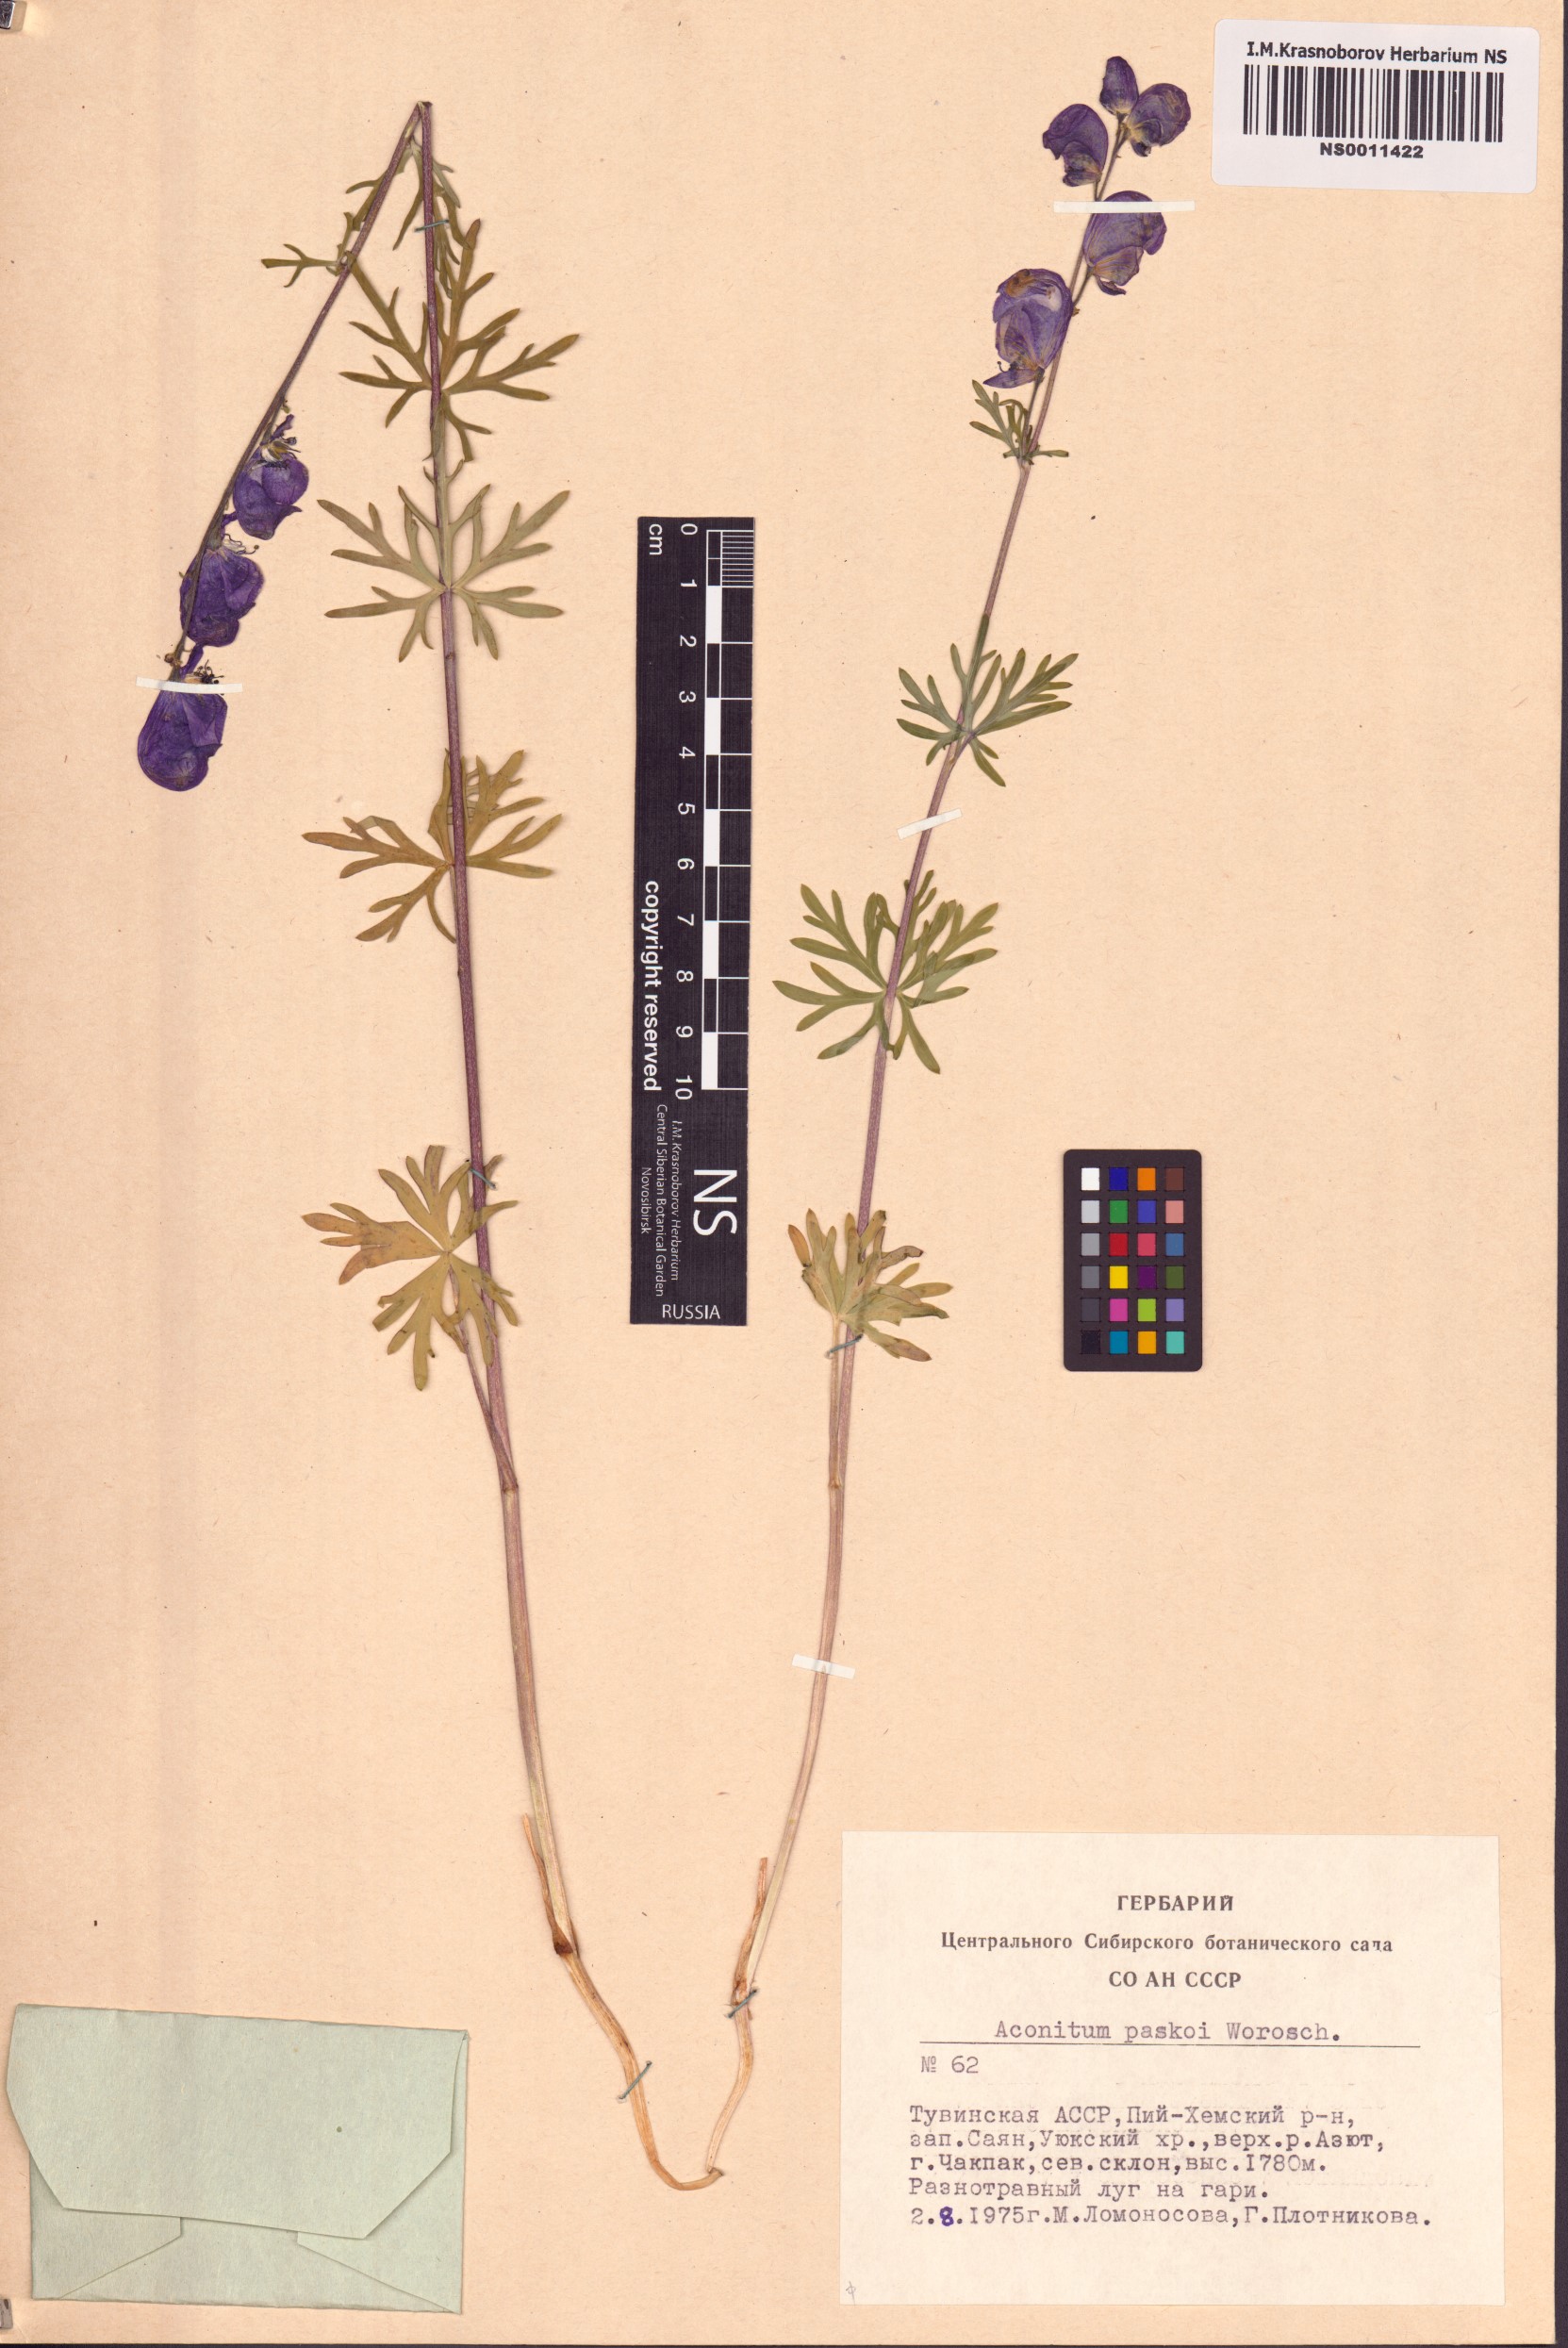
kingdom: Plantae
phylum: Tracheophyta
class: Magnoliopsida
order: Ranunculales
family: Ranunculaceae
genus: Aconitum
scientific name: Aconitum pascoi
